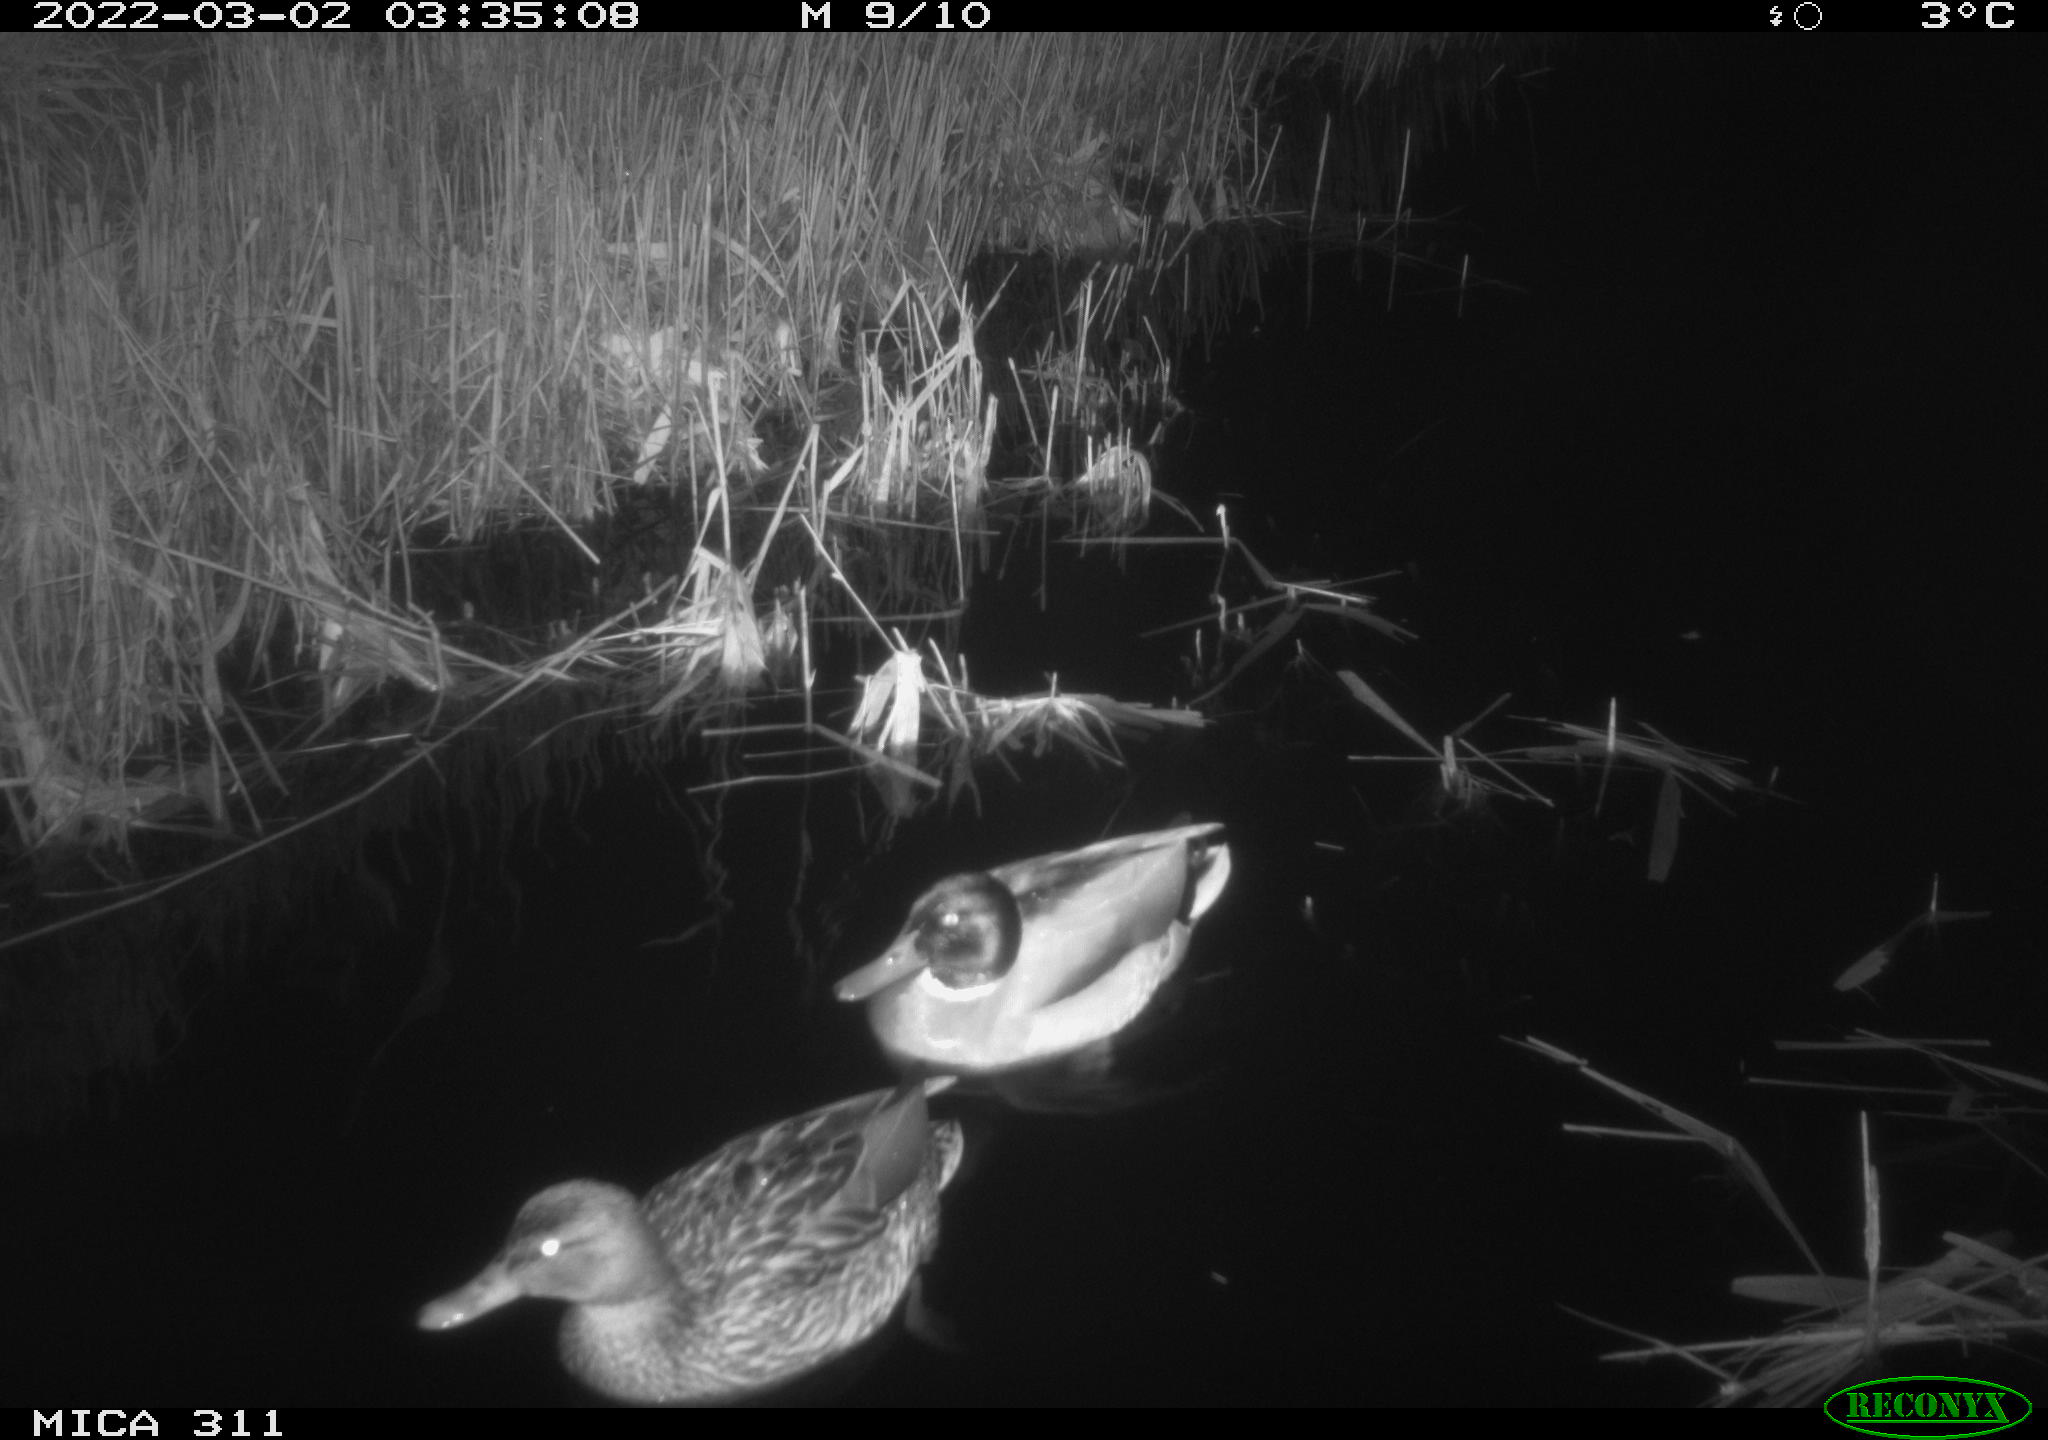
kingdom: Animalia
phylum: Chordata
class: Aves
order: Anseriformes
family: Anatidae
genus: Anas
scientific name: Anas
